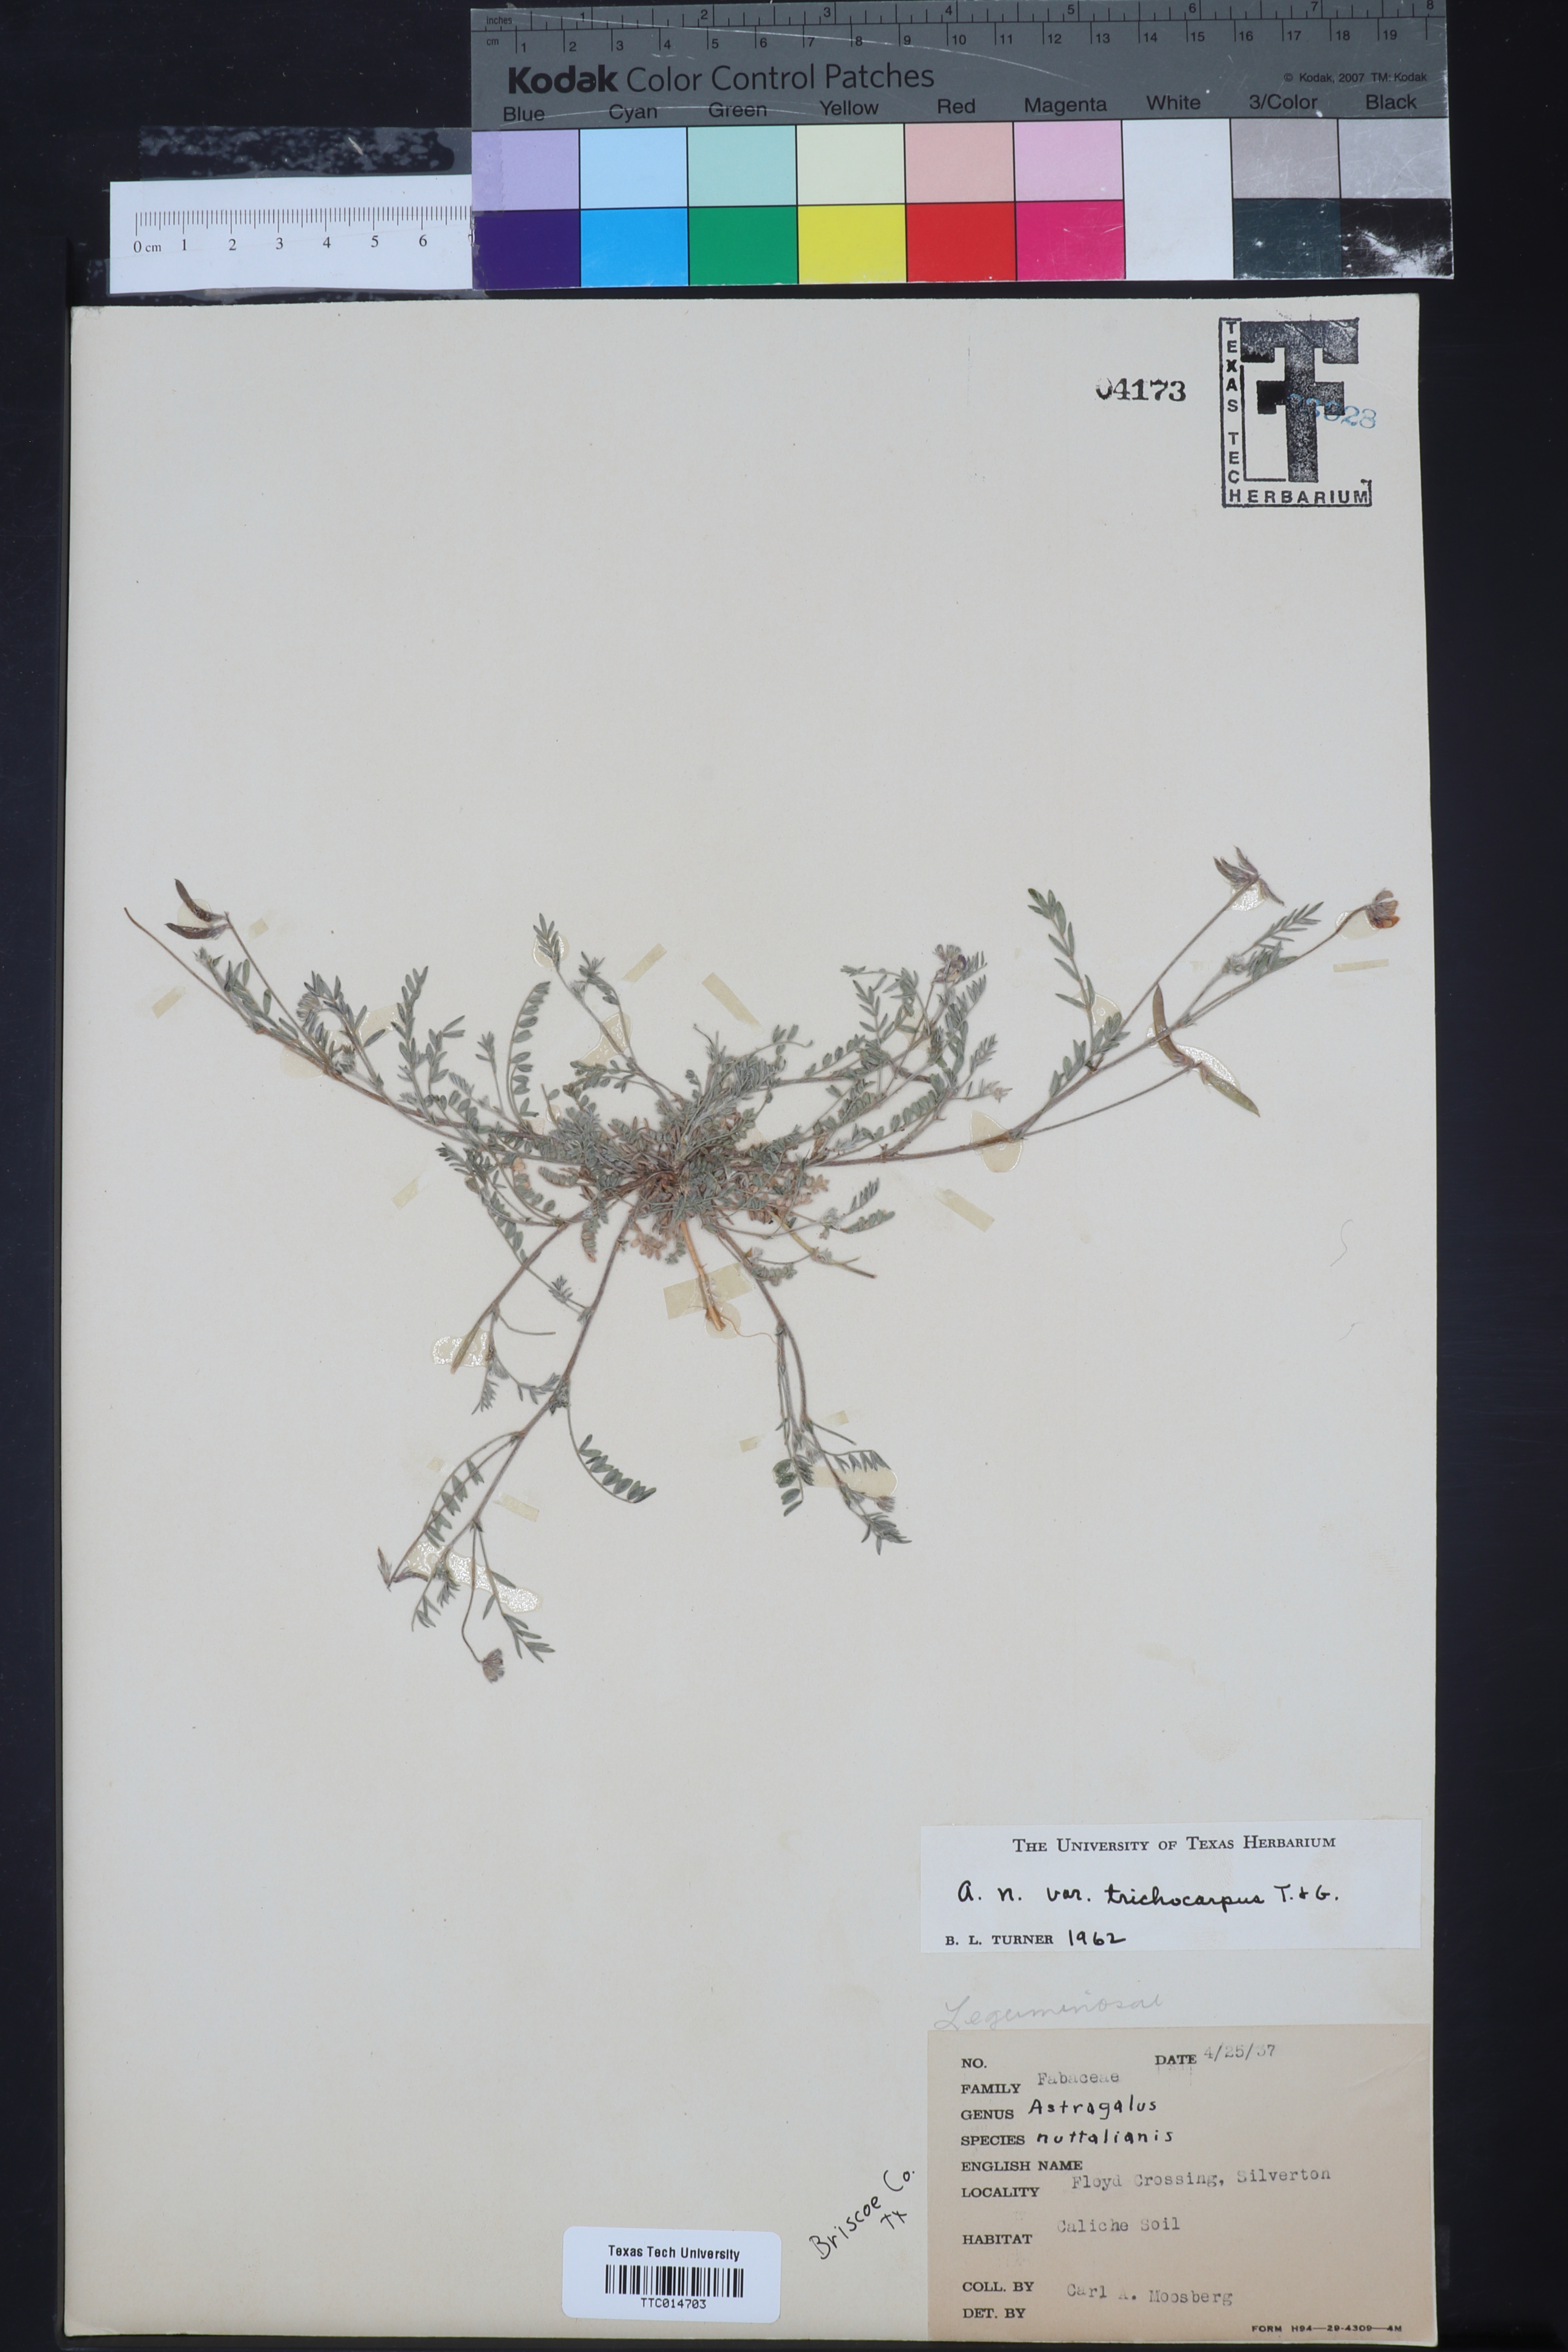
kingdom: Plantae
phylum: Tracheophyta
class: Magnoliopsida
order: Fabales
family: Fabaceae
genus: Astragalus
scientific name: Astragalus nuttallianus
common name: Smallflowered milkvetch
